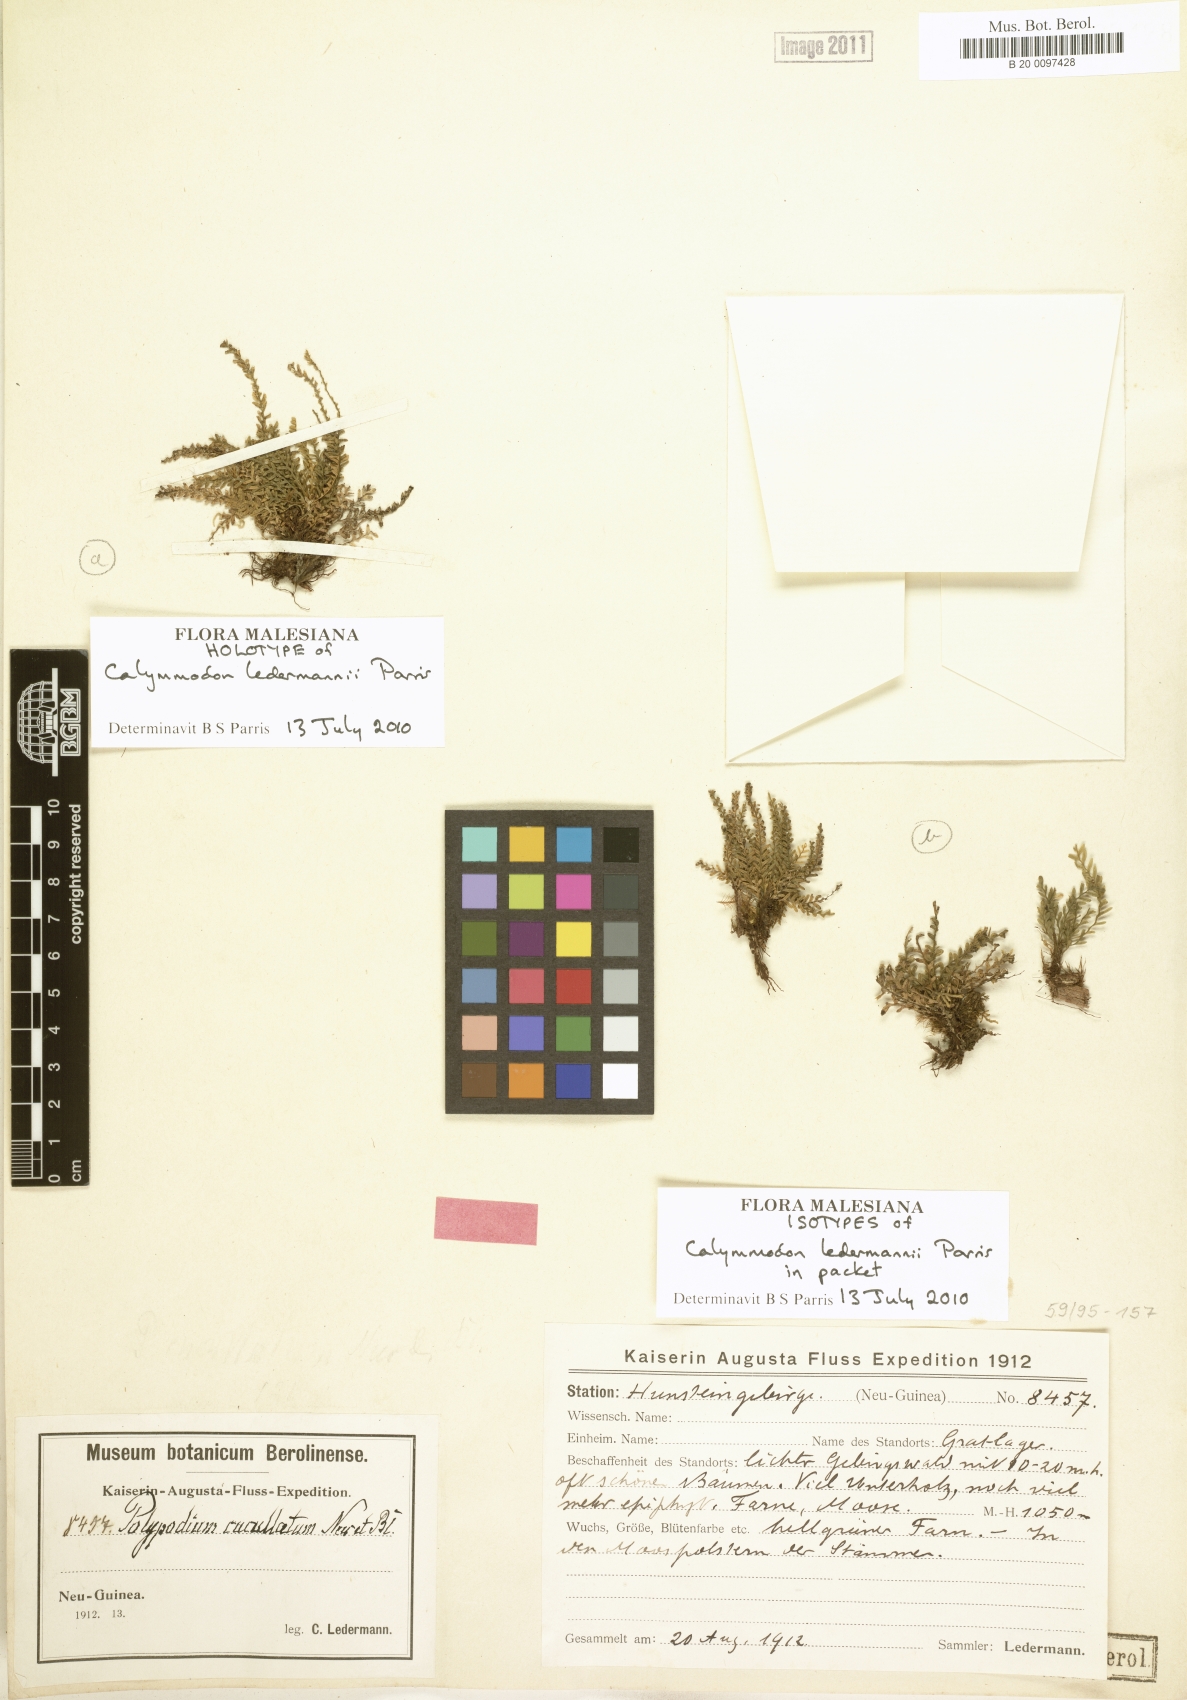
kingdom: Plantae
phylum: Tracheophyta
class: Polypodiopsida
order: Polypodiales
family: Polypodiaceae
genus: Calymmodon
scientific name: Calymmodon ledermannii
